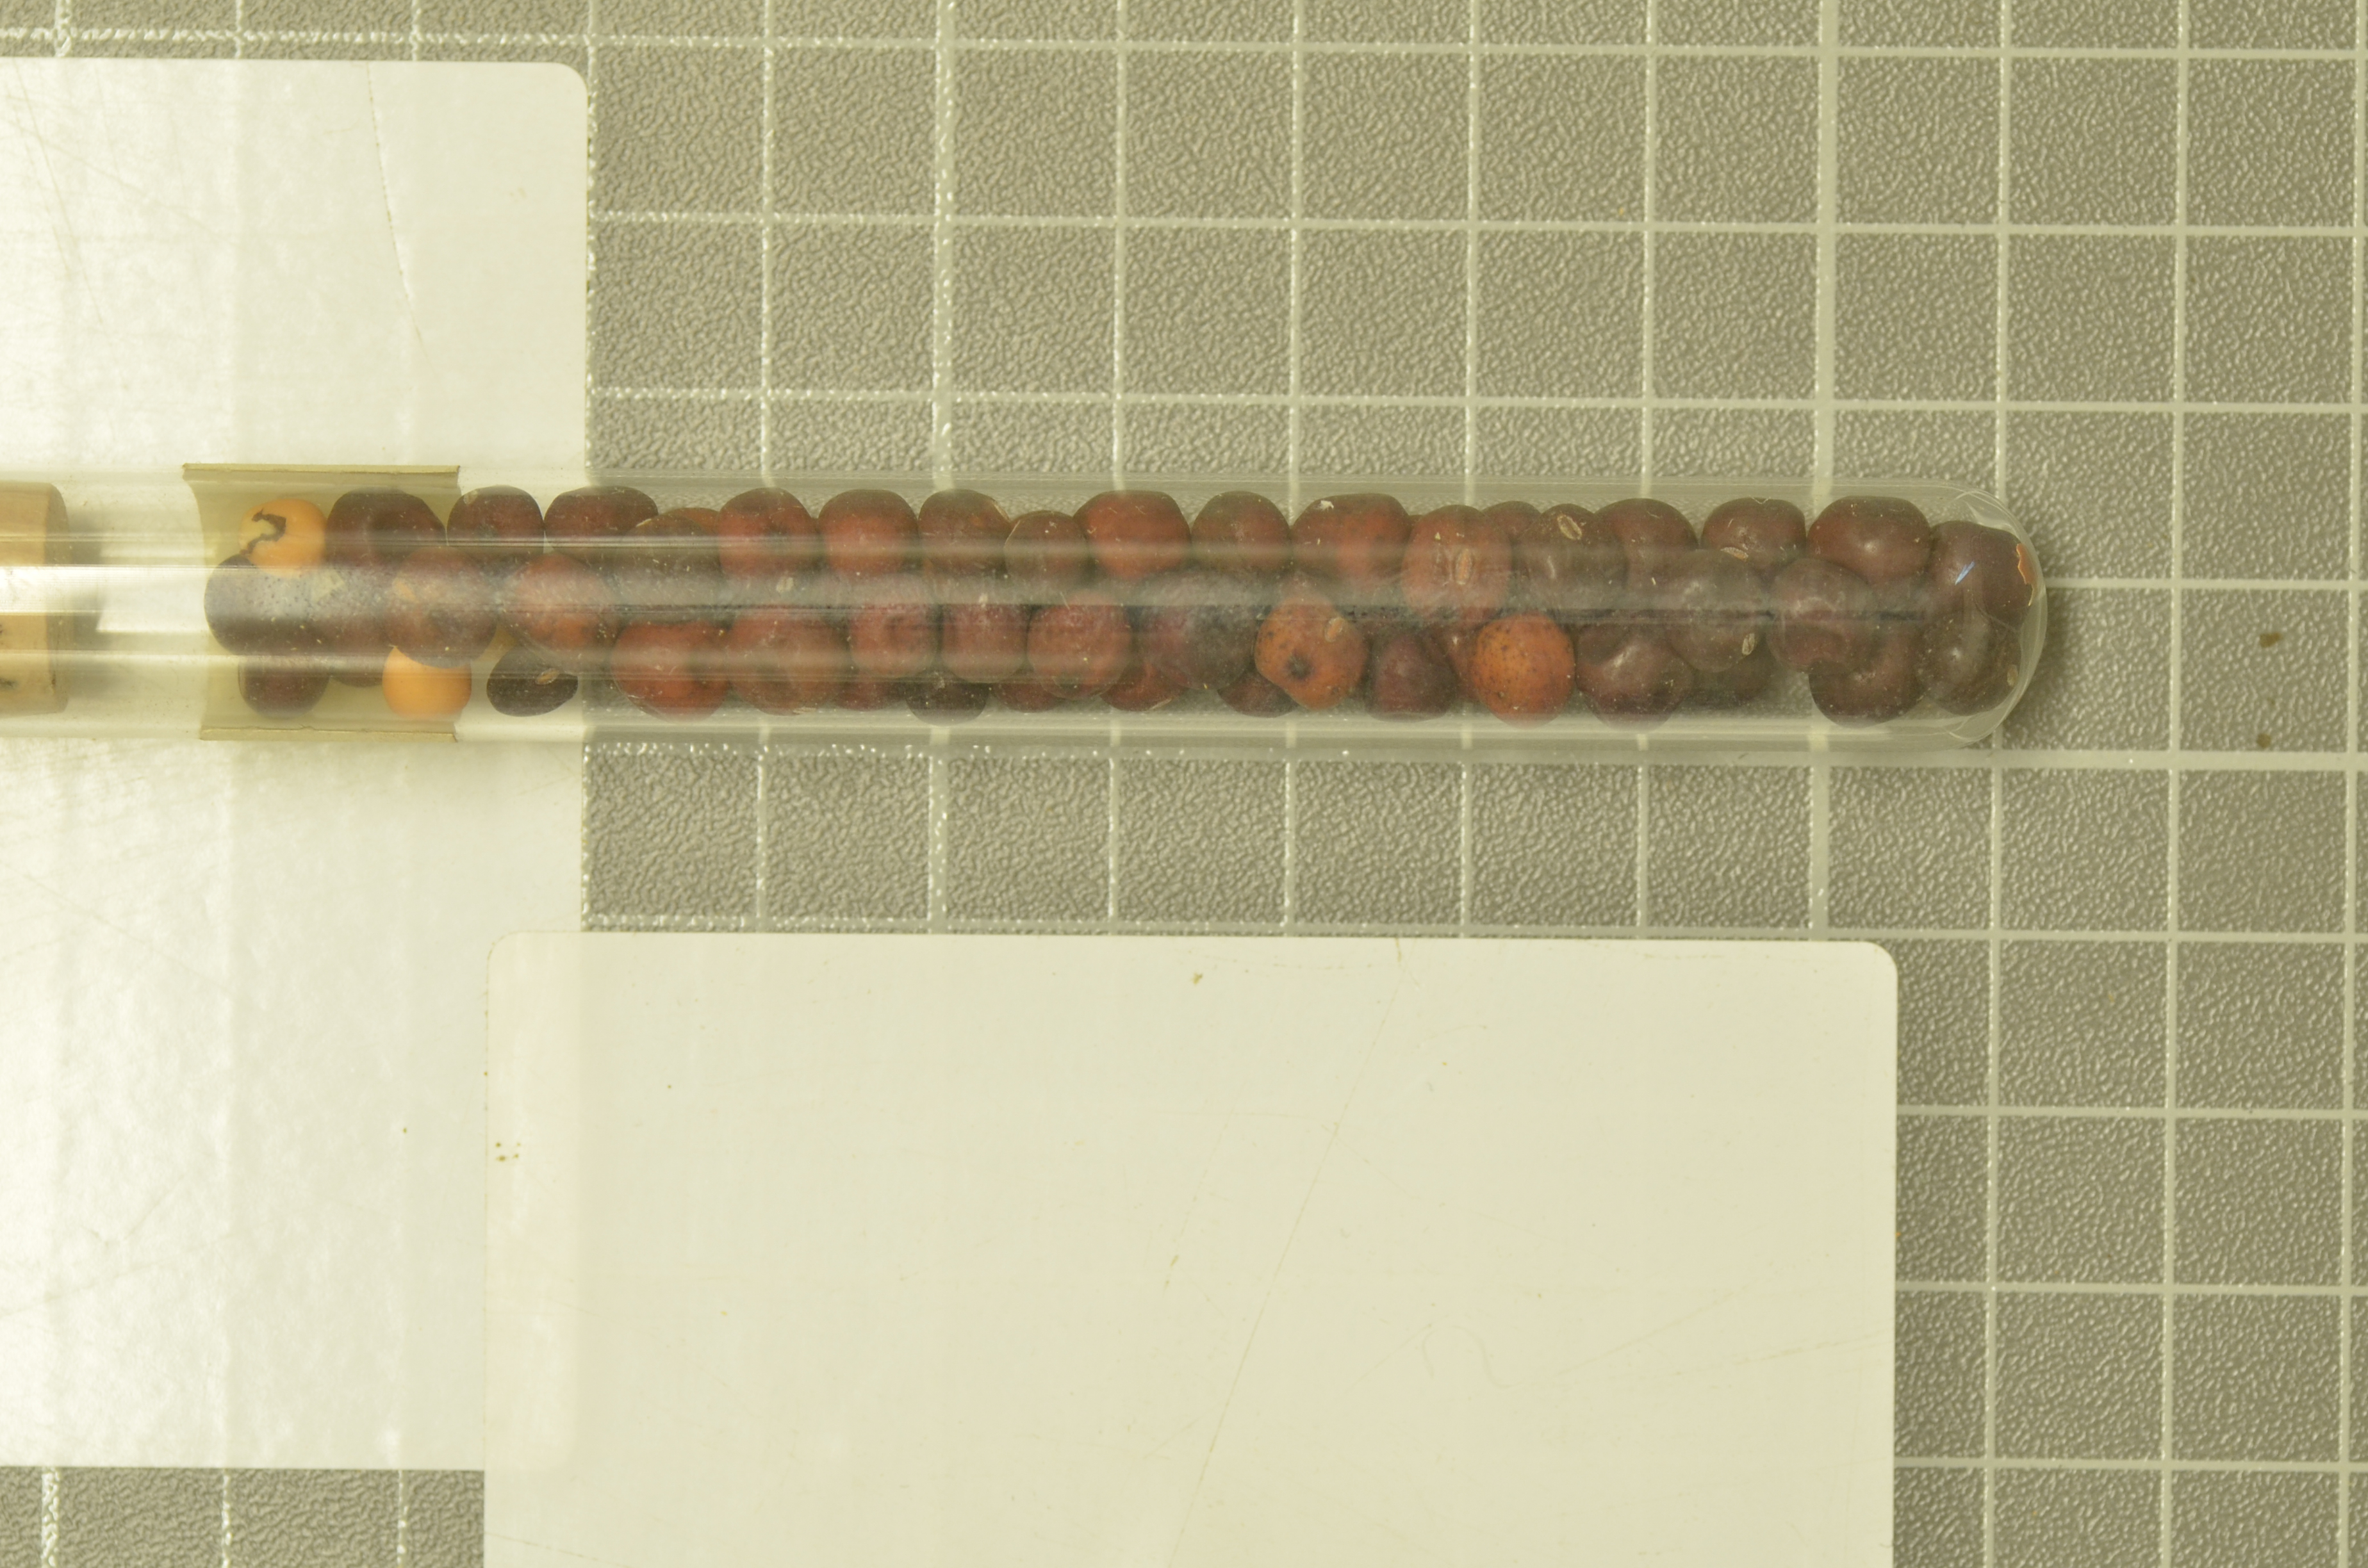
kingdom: Plantae
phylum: Tracheophyta
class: Magnoliopsida
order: Fabales
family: Fabaceae
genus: Lathyrus
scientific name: Lathyrus oleraceus
